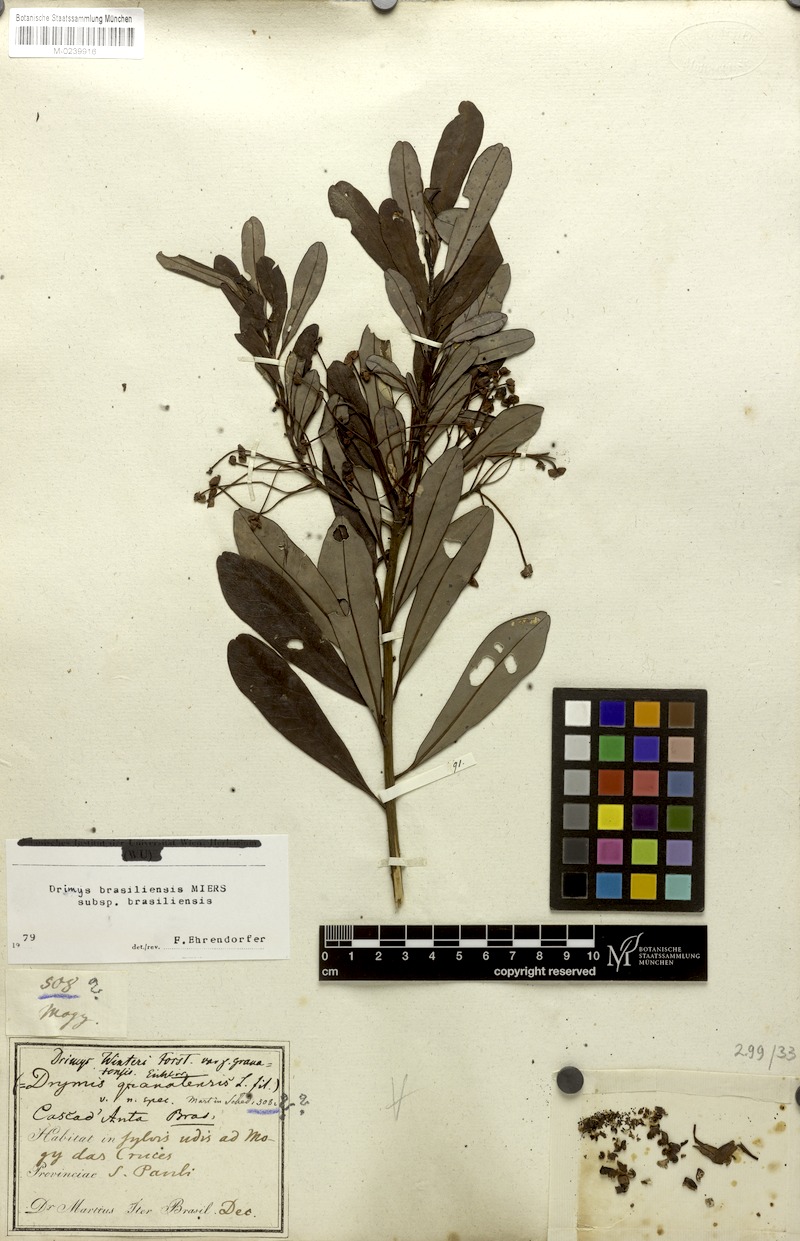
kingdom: Plantae
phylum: Tracheophyta
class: Magnoliopsida
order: Canellales
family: Winteraceae
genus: Drimys
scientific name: Drimys brasiliensis
